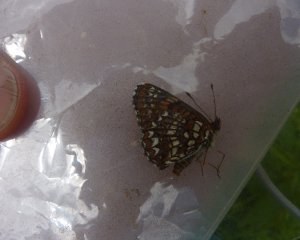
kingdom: Animalia
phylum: Arthropoda
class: Insecta
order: Lepidoptera
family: Nymphalidae
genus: Chlosyne
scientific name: Chlosyne harrisii
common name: Harris's Checkerspot
